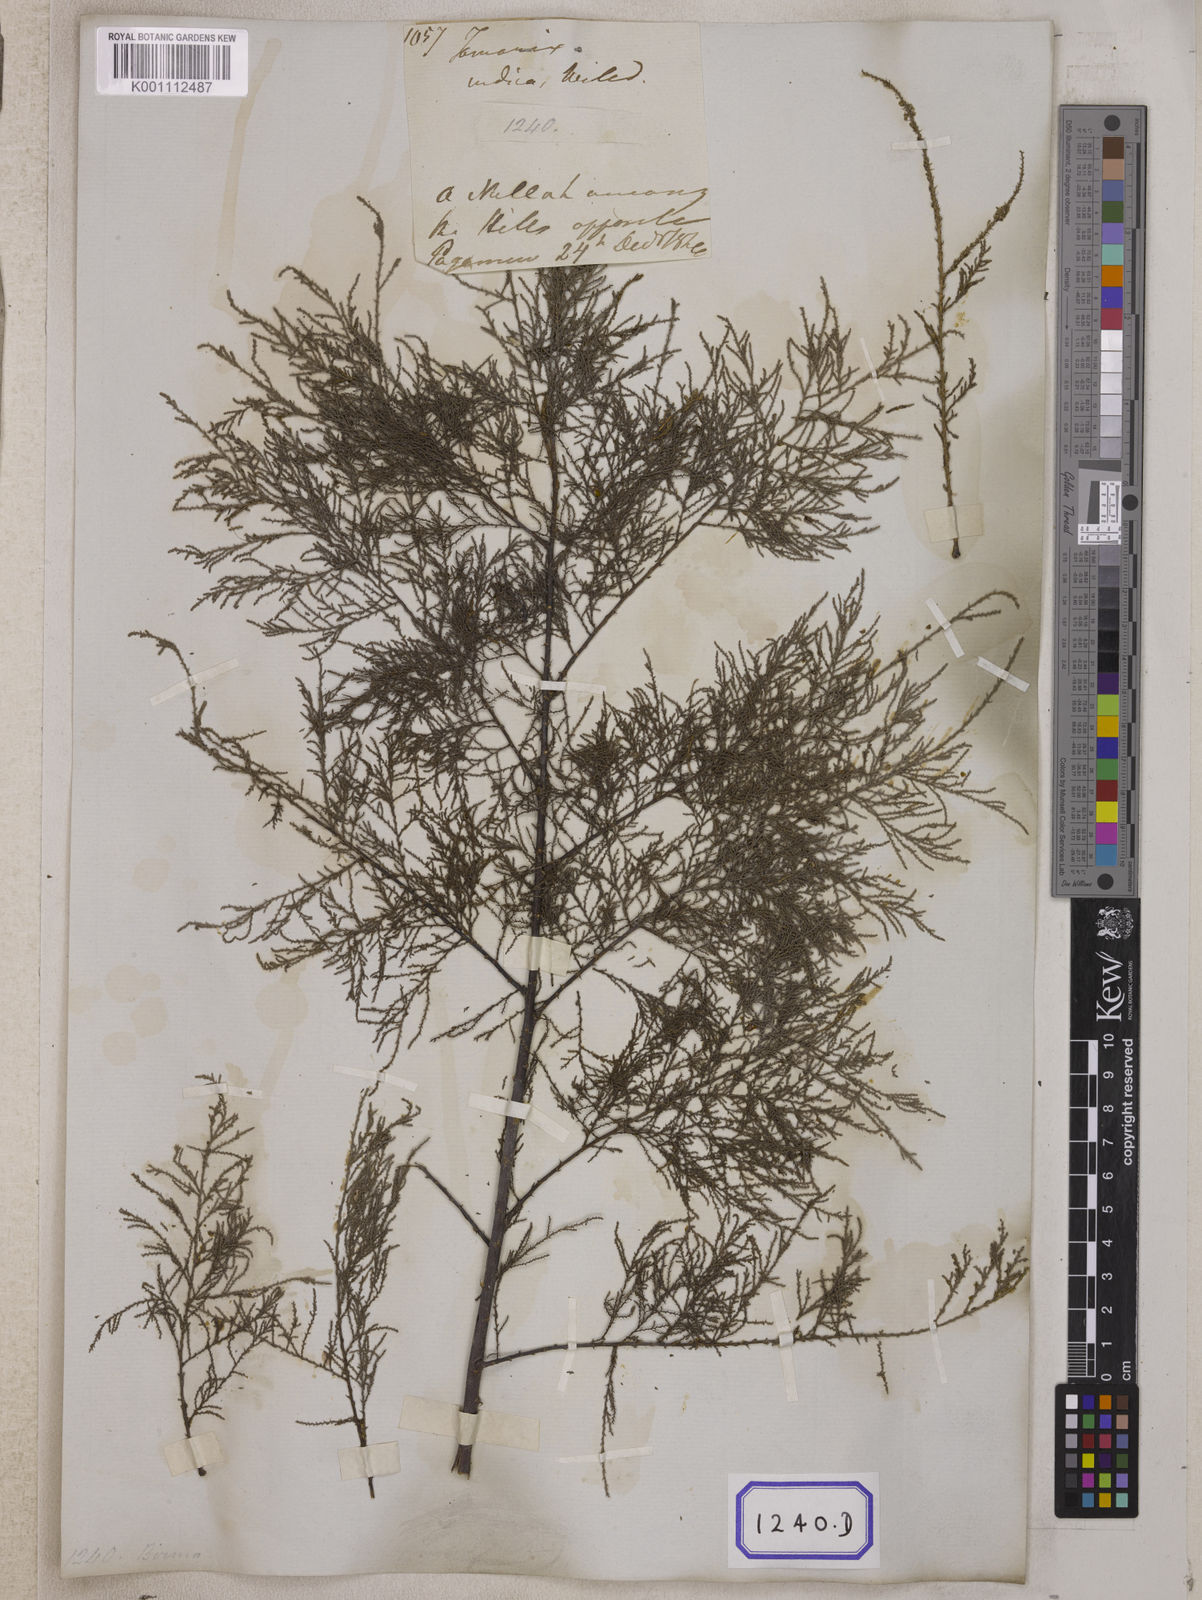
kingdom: Plantae
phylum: Tracheophyta
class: Magnoliopsida
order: Caryophyllales
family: Tamaricaceae
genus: Tamarix
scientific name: Tamarix indica
